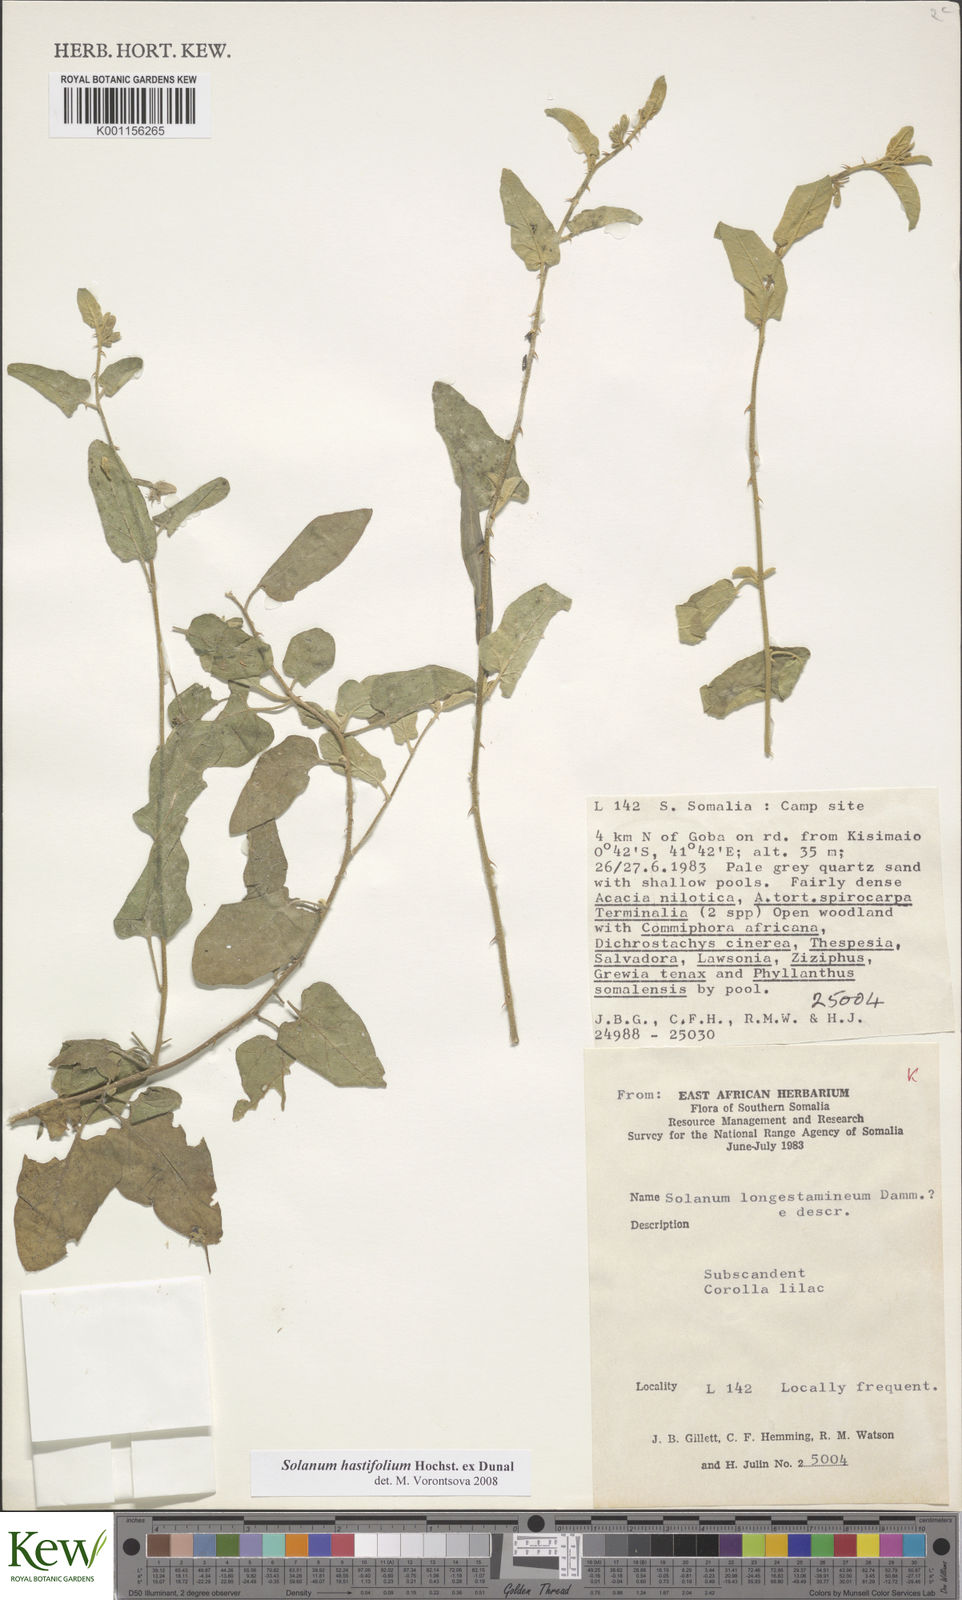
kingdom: Plantae
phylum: Tracheophyta
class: Magnoliopsida
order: Solanales
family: Solanaceae
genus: Solanum
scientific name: Solanum hastifolium
